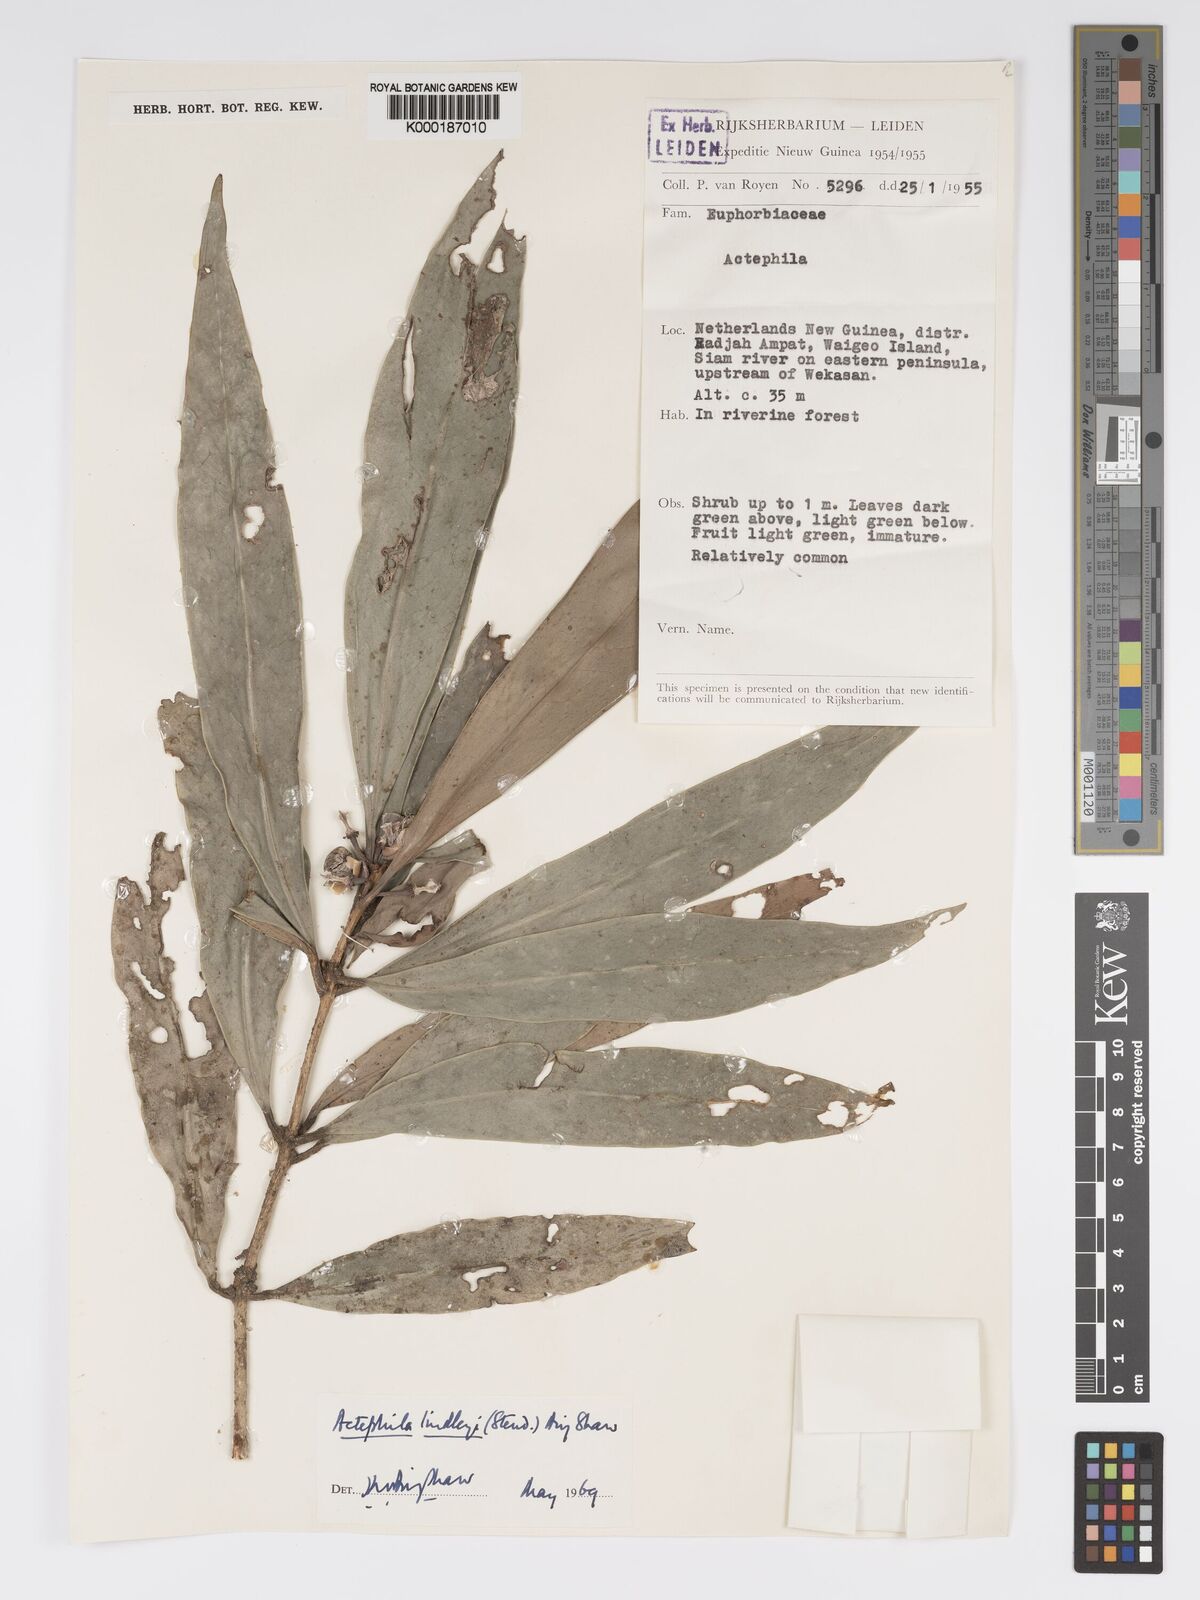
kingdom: Plantae
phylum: Tracheophyta
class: Magnoliopsida
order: Malpighiales
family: Phyllanthaceae
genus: Actephila
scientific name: Actephila lindleyi
